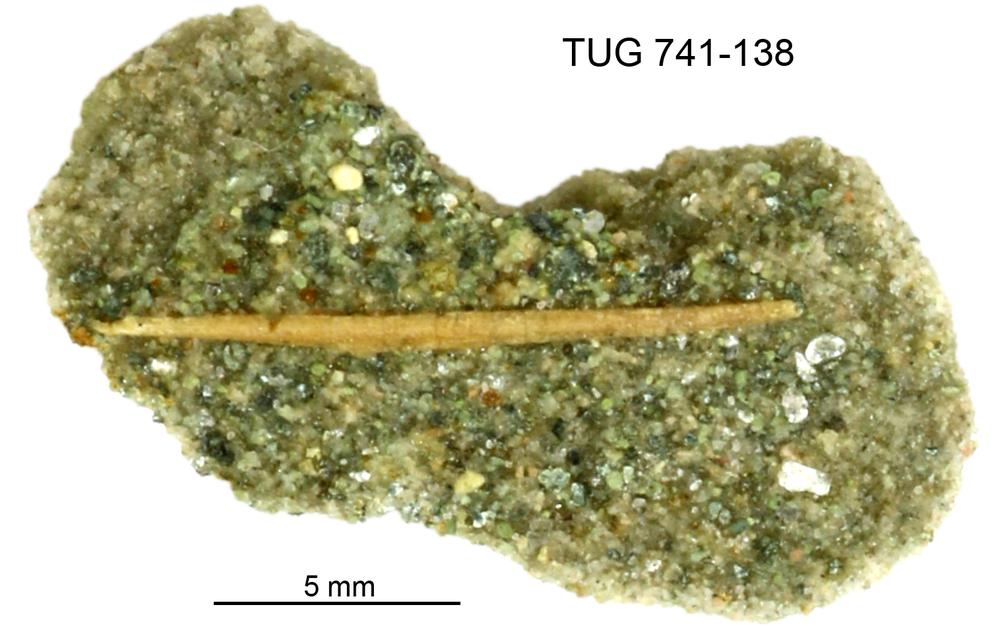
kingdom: Animalia
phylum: Chordata
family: Acanthodidae
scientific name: Acanthodidae
